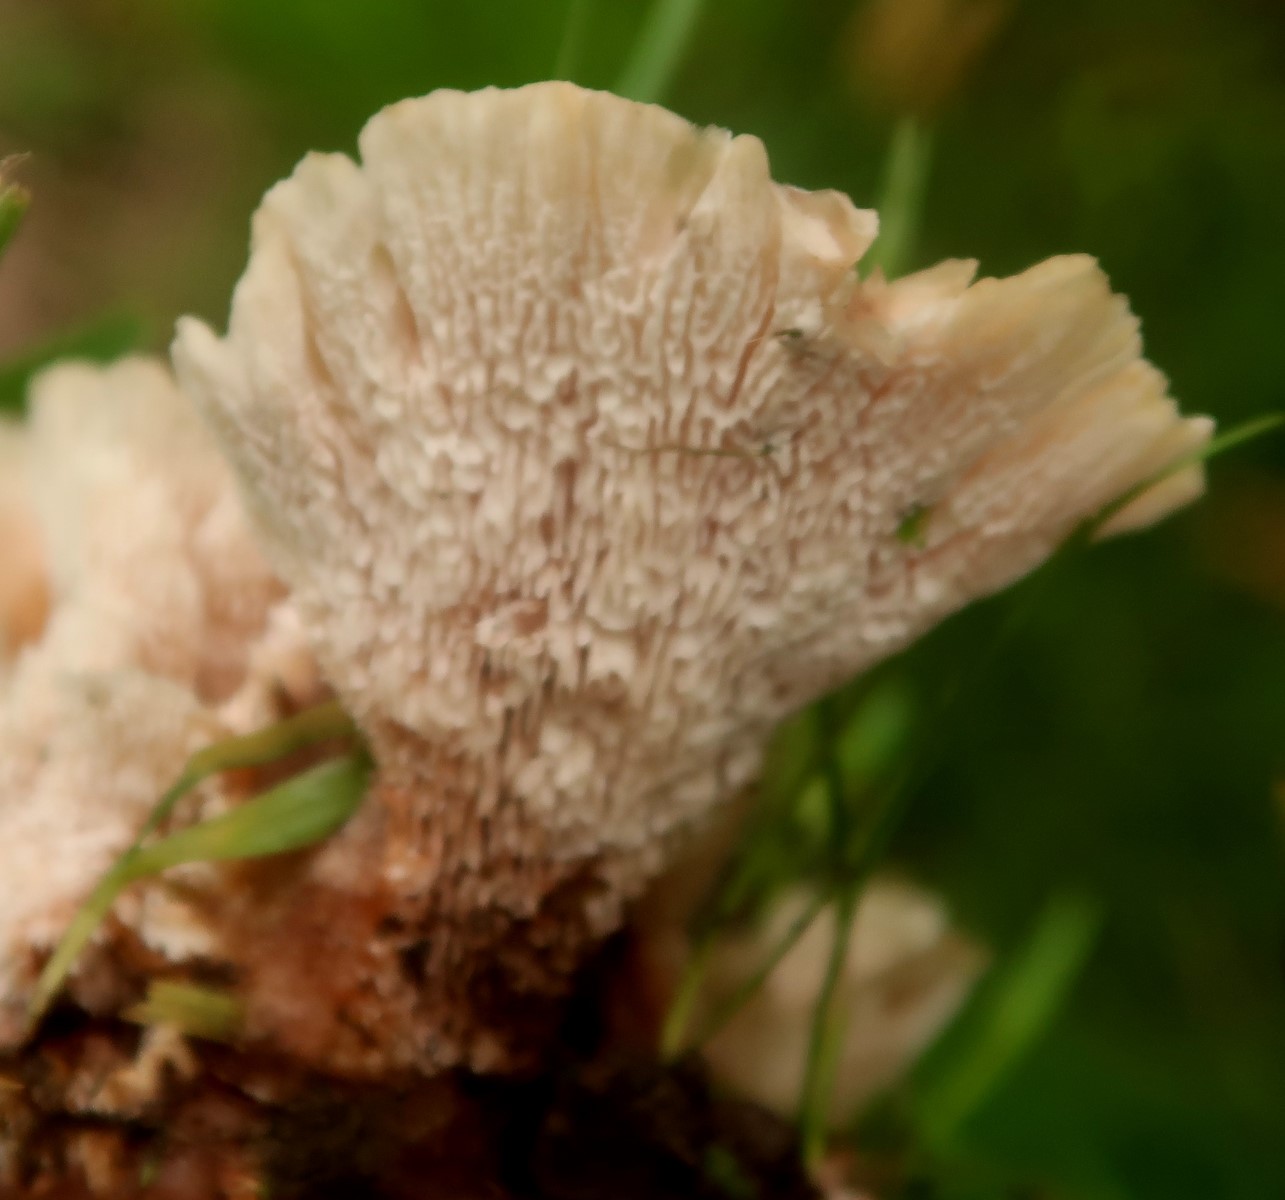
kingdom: Fungi
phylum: Basidiomycota
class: Agaricomycetes
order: Polyporales
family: Podoscyphaceae
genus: Abortiporus
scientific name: Abortiporus biennis
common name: rødmende pjalteporesvamp
